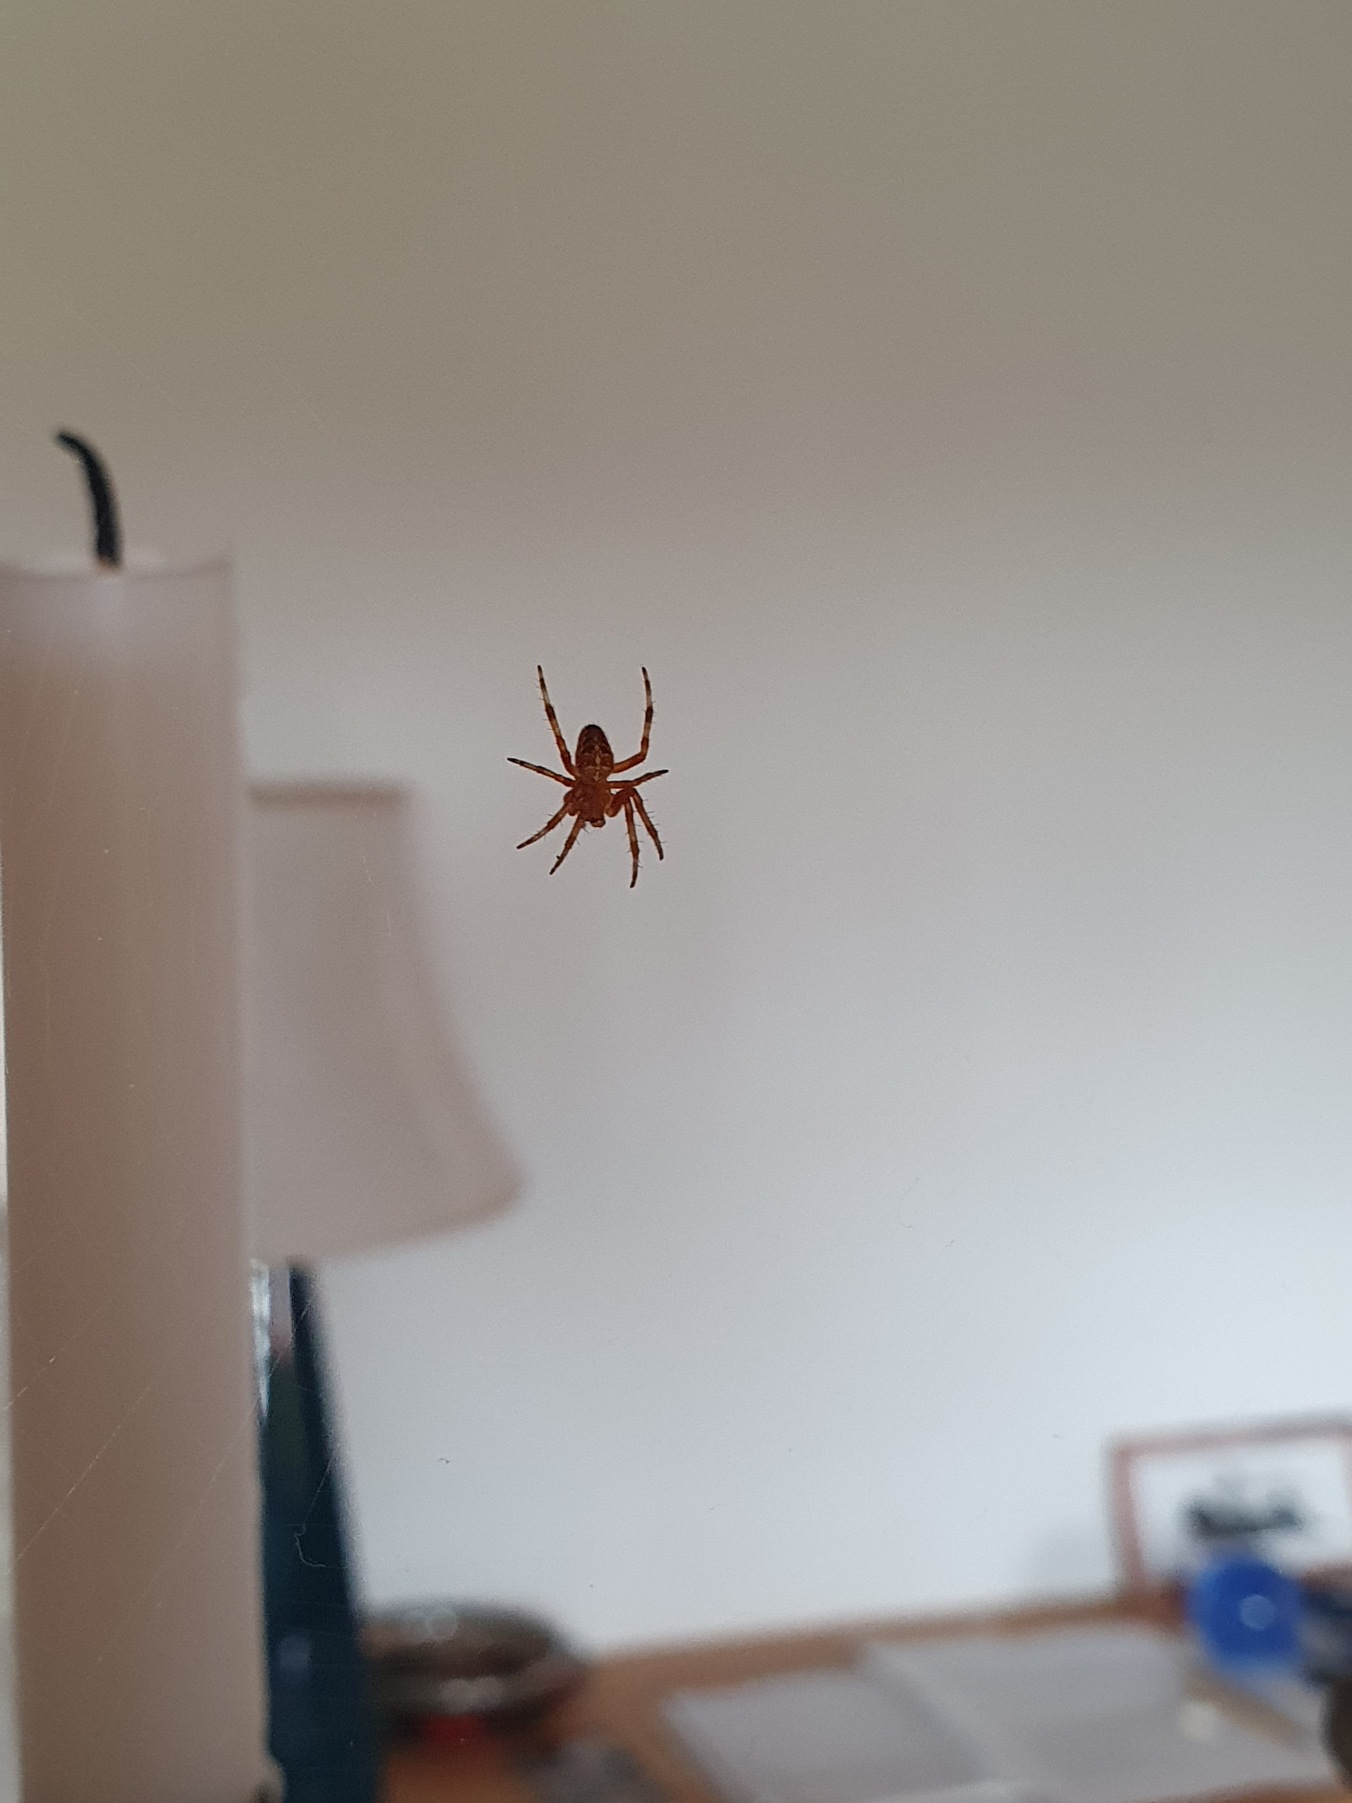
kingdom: Animalia
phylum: Arthropoda
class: Arachnida
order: Araneae
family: Araneidae
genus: Araneus
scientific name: Araneus diadematus
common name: Korsedderkop
